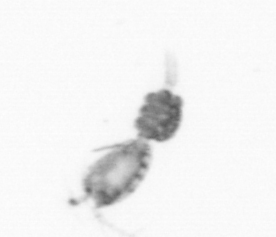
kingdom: Animalia
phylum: Arthropoda
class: Copepoda
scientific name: Copepoda
